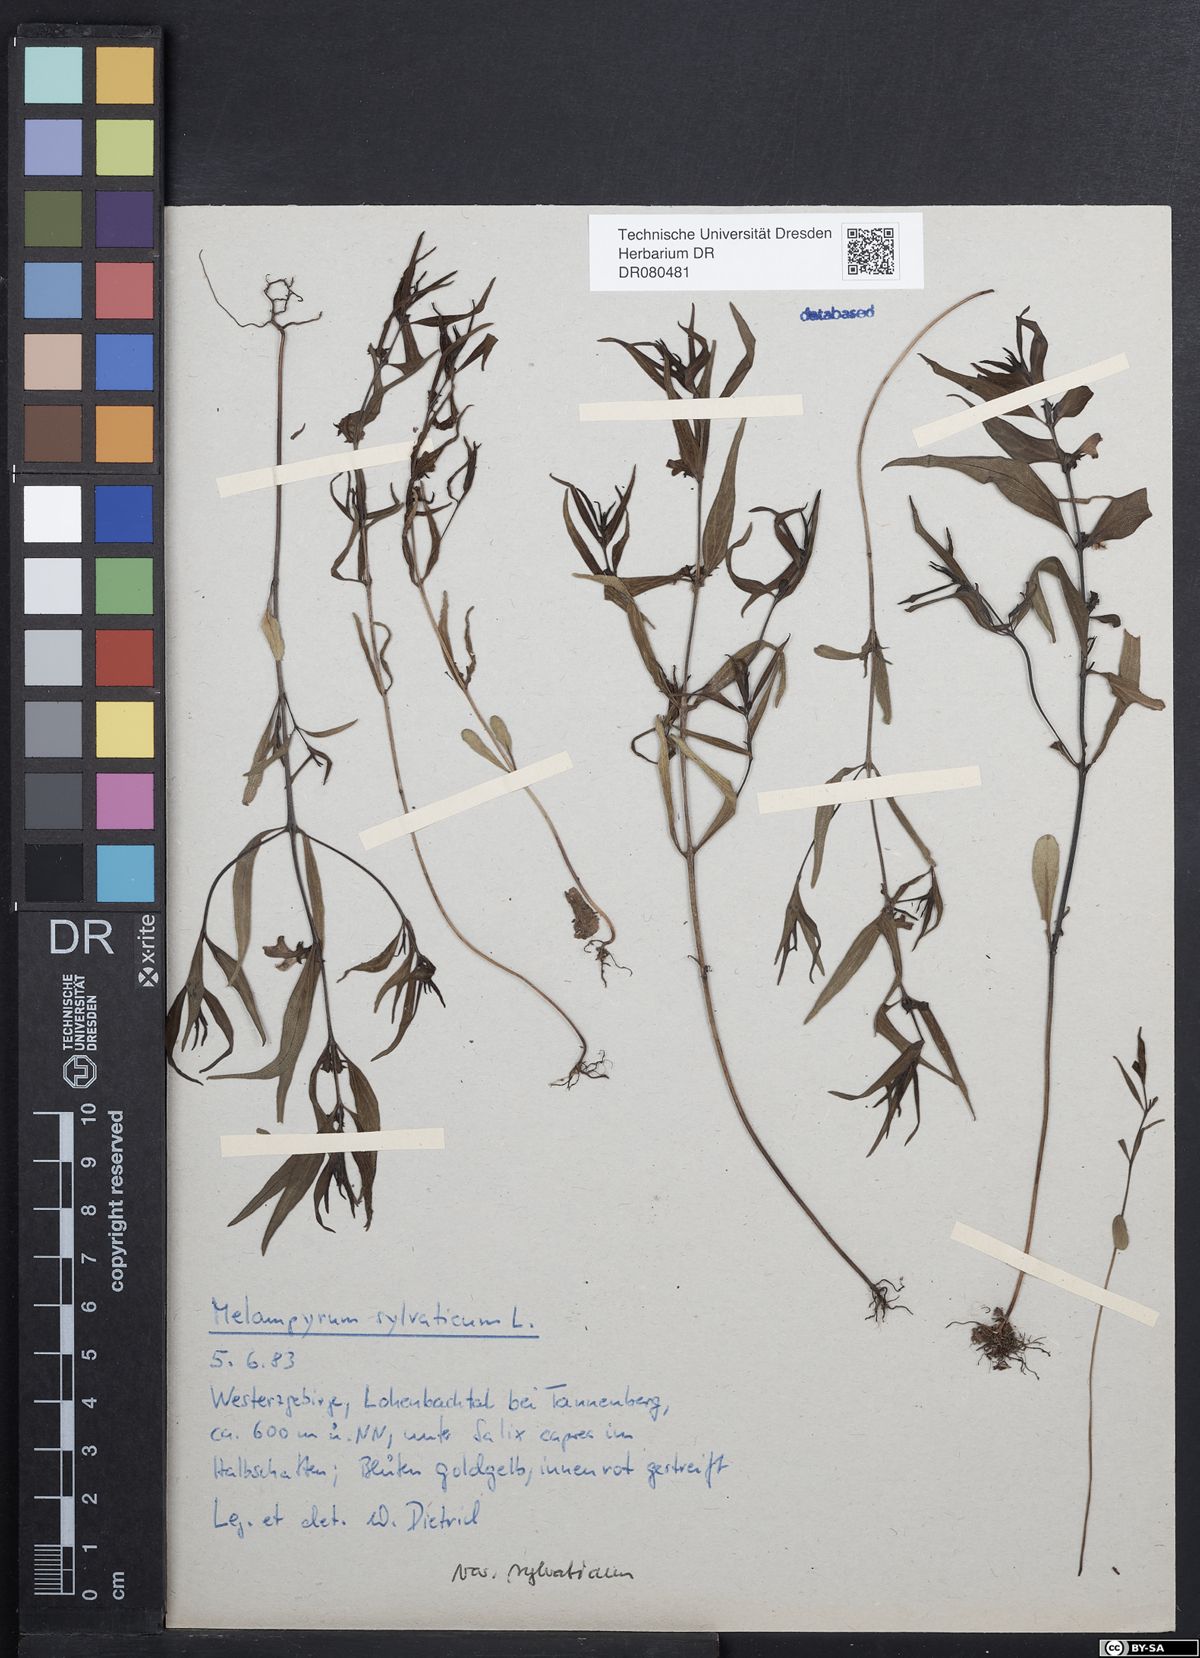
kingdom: Plantae
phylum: Tracheophyta
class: Magnoliopsida
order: Lamiales
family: Orobanchaceae
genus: Melampyrum
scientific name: Melampyrum sylvaticum
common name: Small cow-wheat
